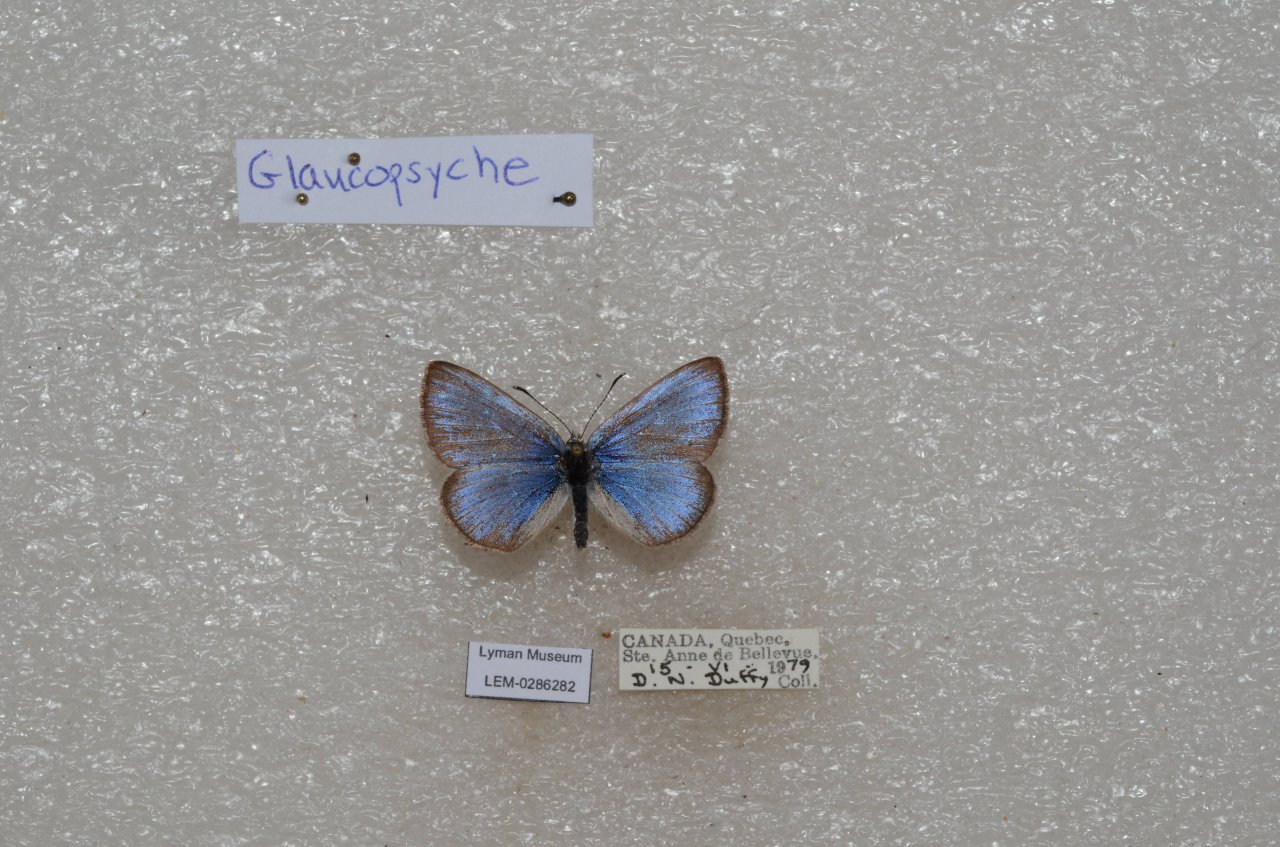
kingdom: Animalia
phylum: Arthropoda
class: Insecta
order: Lepidoptera
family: Lycaenidae
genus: Glaucopsyche
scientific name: Glaucopsyche lygdamus
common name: Silvery Blue
